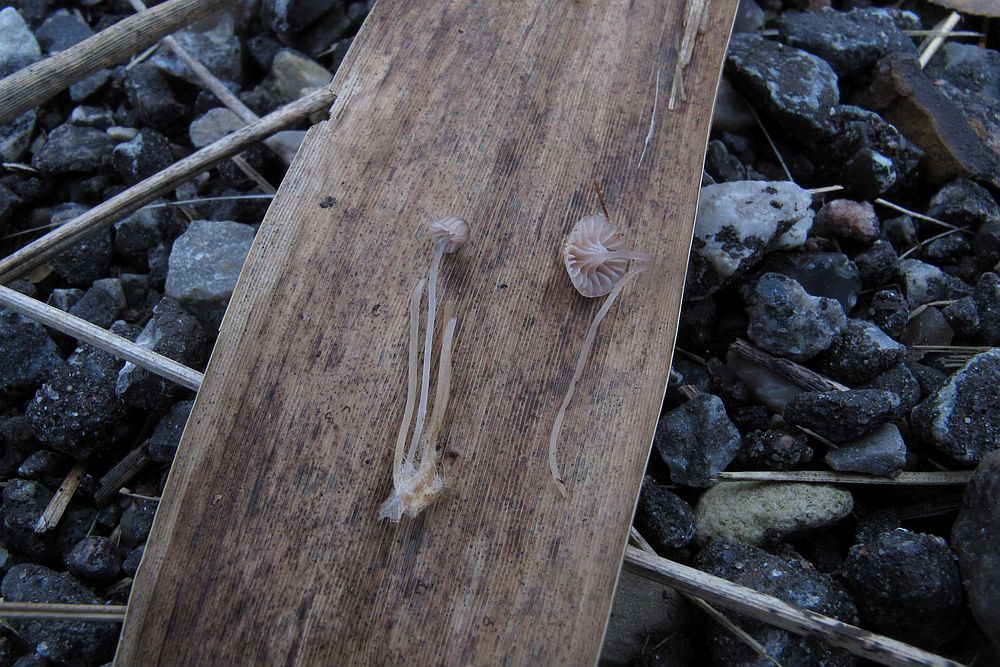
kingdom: Fungi
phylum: Basidiomycota
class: Agaricomycetes
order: Agaricales
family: Mycenaceae
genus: Mycena
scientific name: Mycena riparia
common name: star-huesvamp
